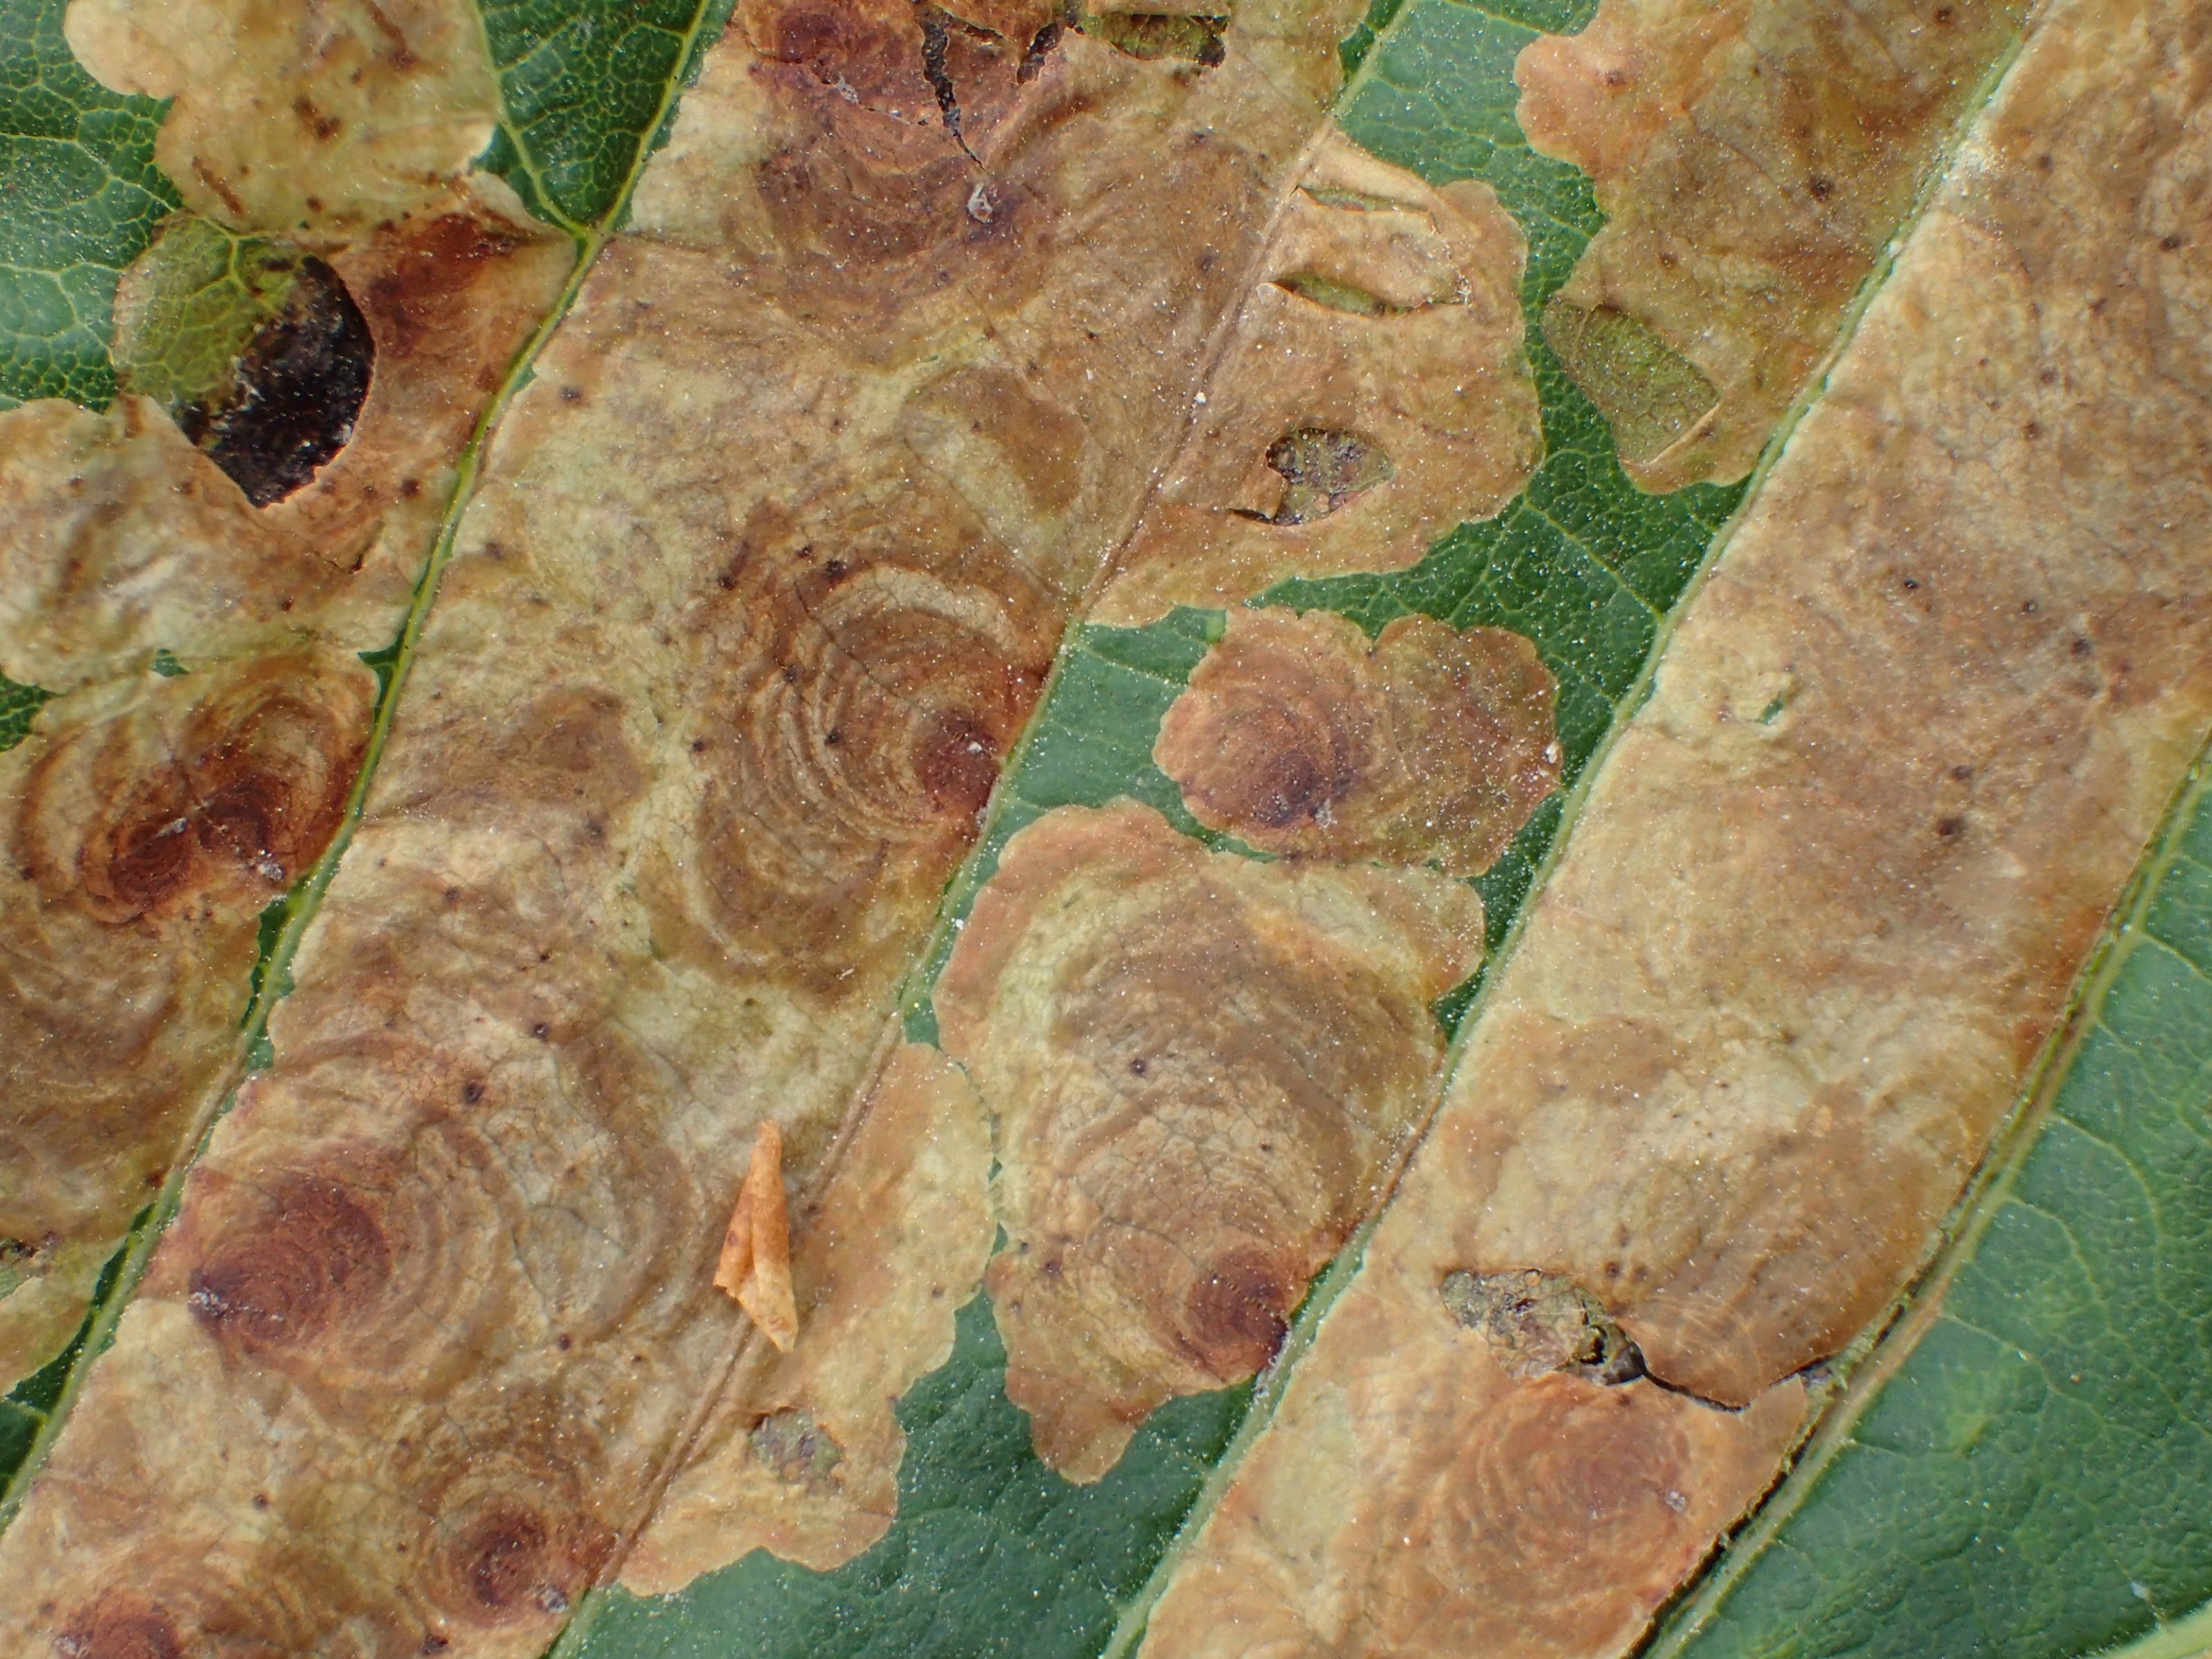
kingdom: Animalia
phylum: Arthropoda
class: Insecta
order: Lepidoptera
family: Gracillariidae
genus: Cameraria
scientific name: Cameraria ohridella
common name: Kastanieminérmøl
